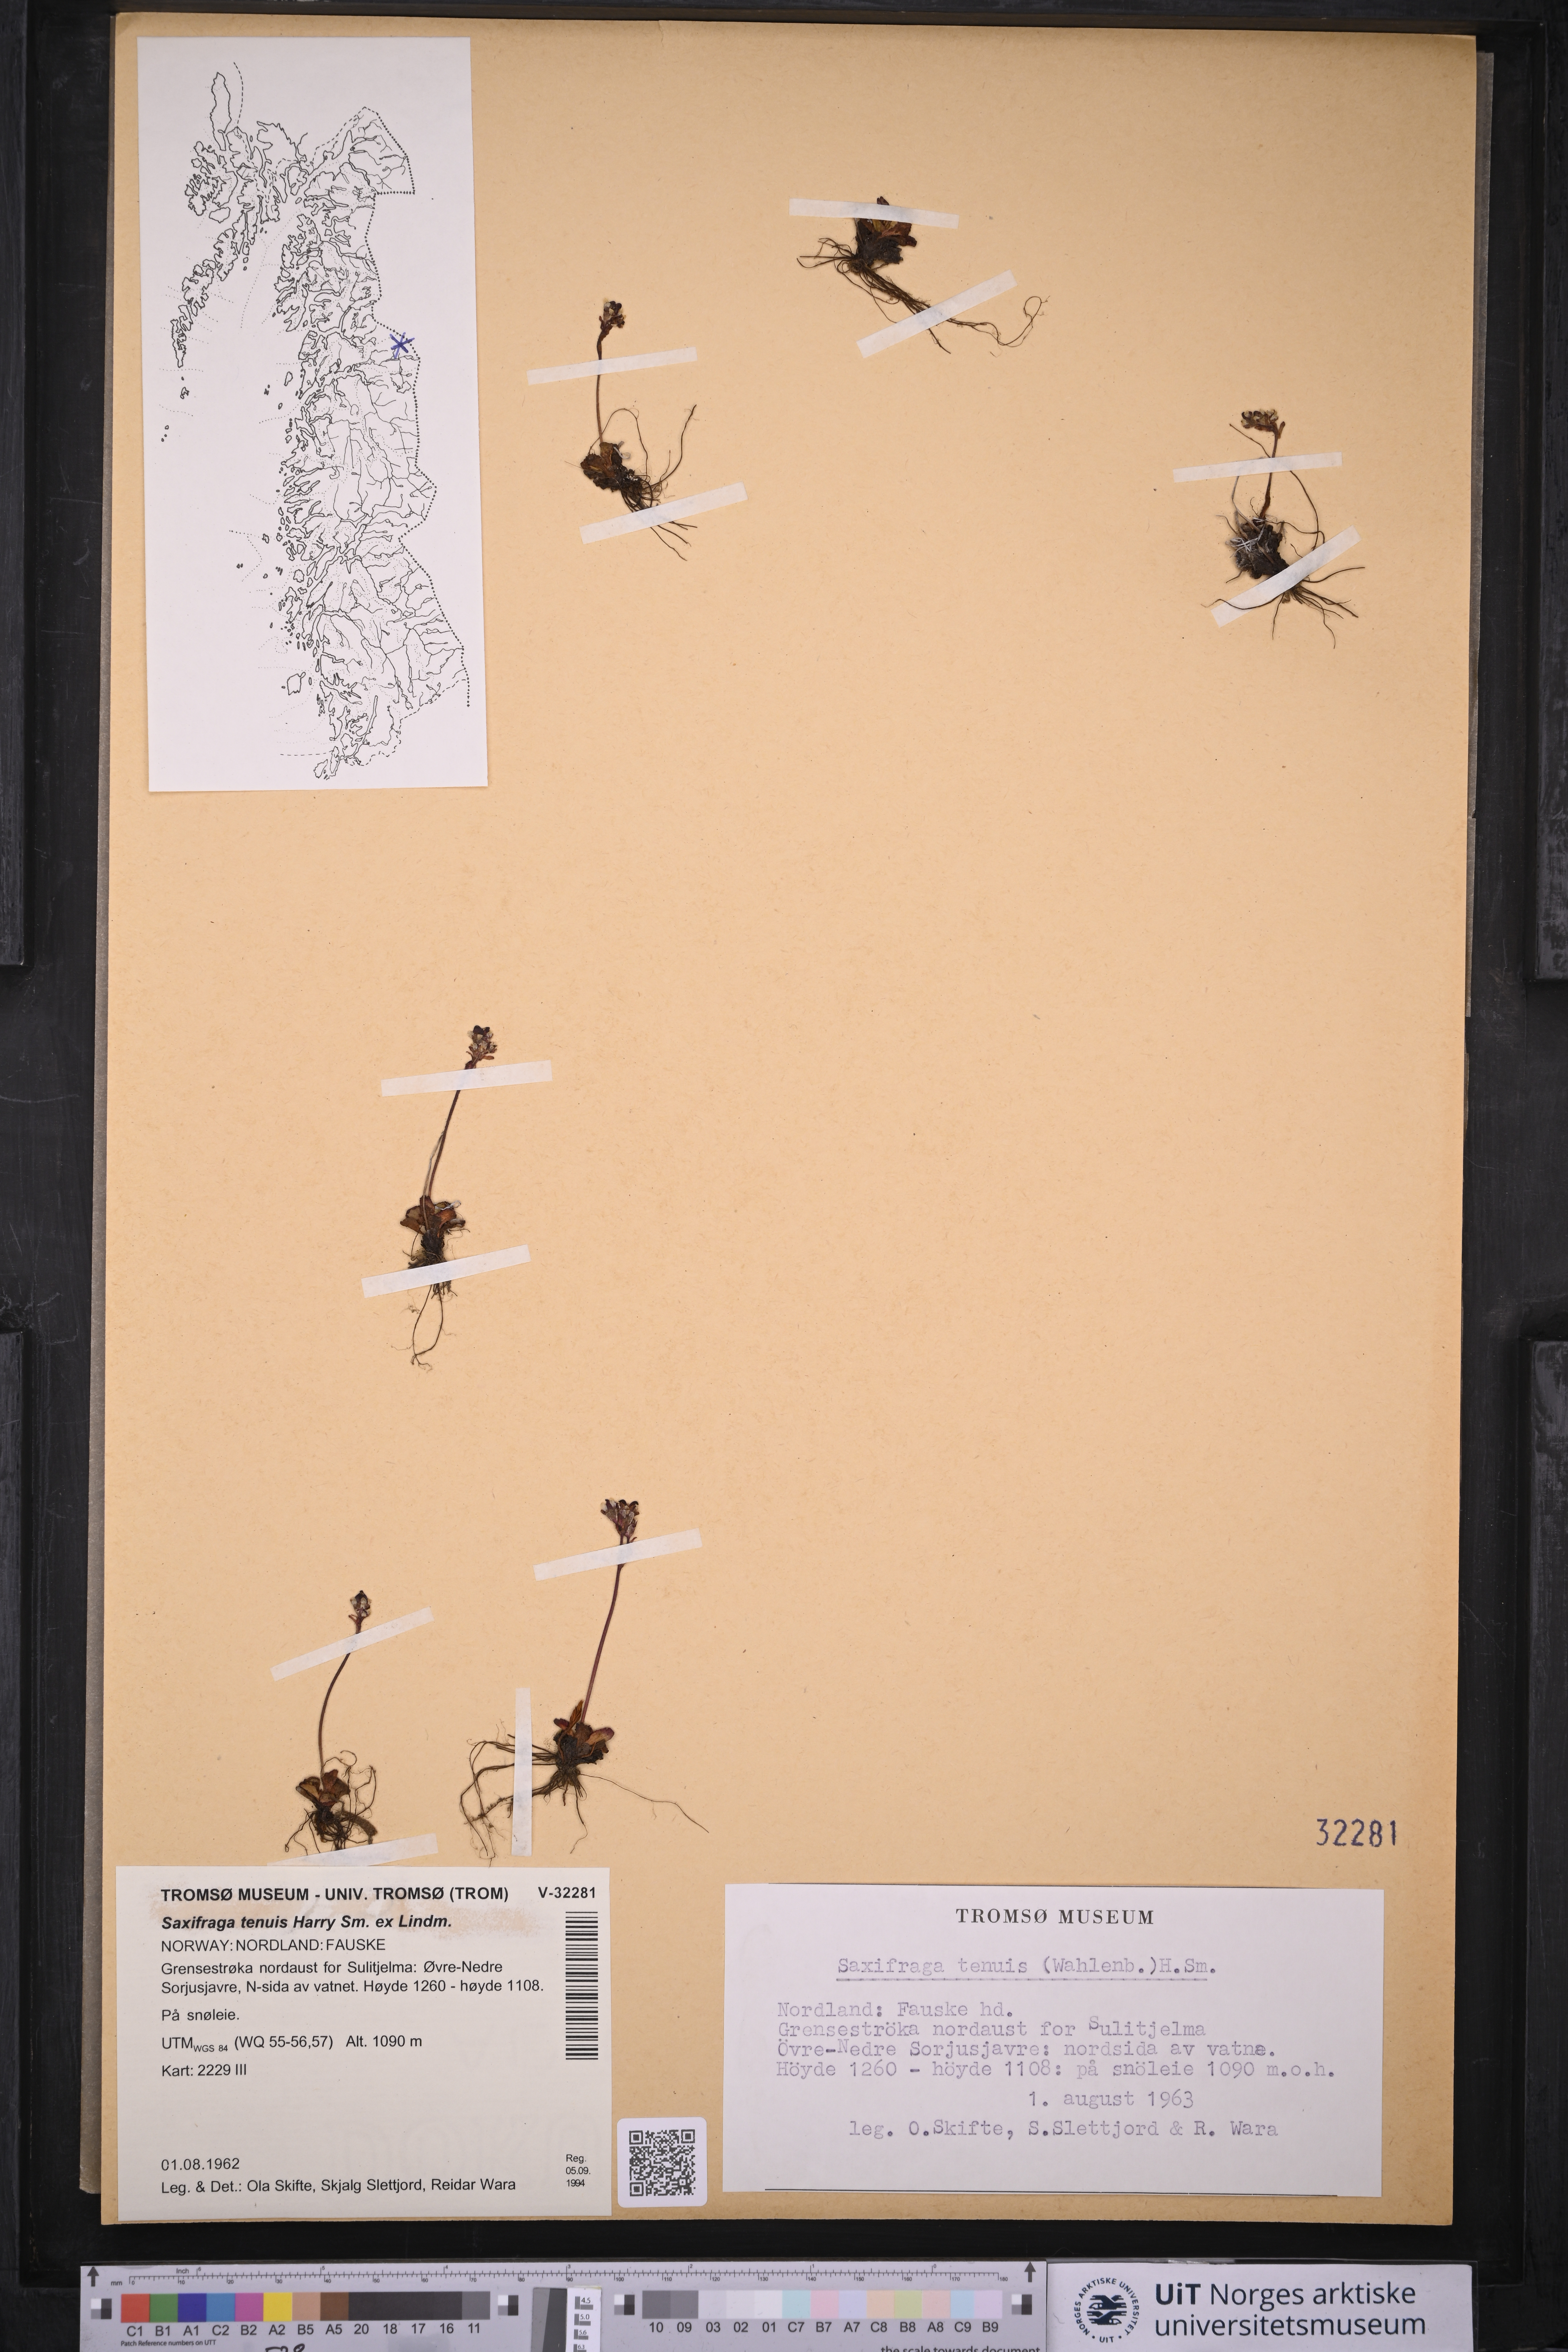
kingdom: Plantae
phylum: Tracheophyta
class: Magnoliopsida
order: Saxifragales
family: Saxifragaceae
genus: Micranthes
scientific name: Micranthes tenuis
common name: Ottertail pass saxifrage
